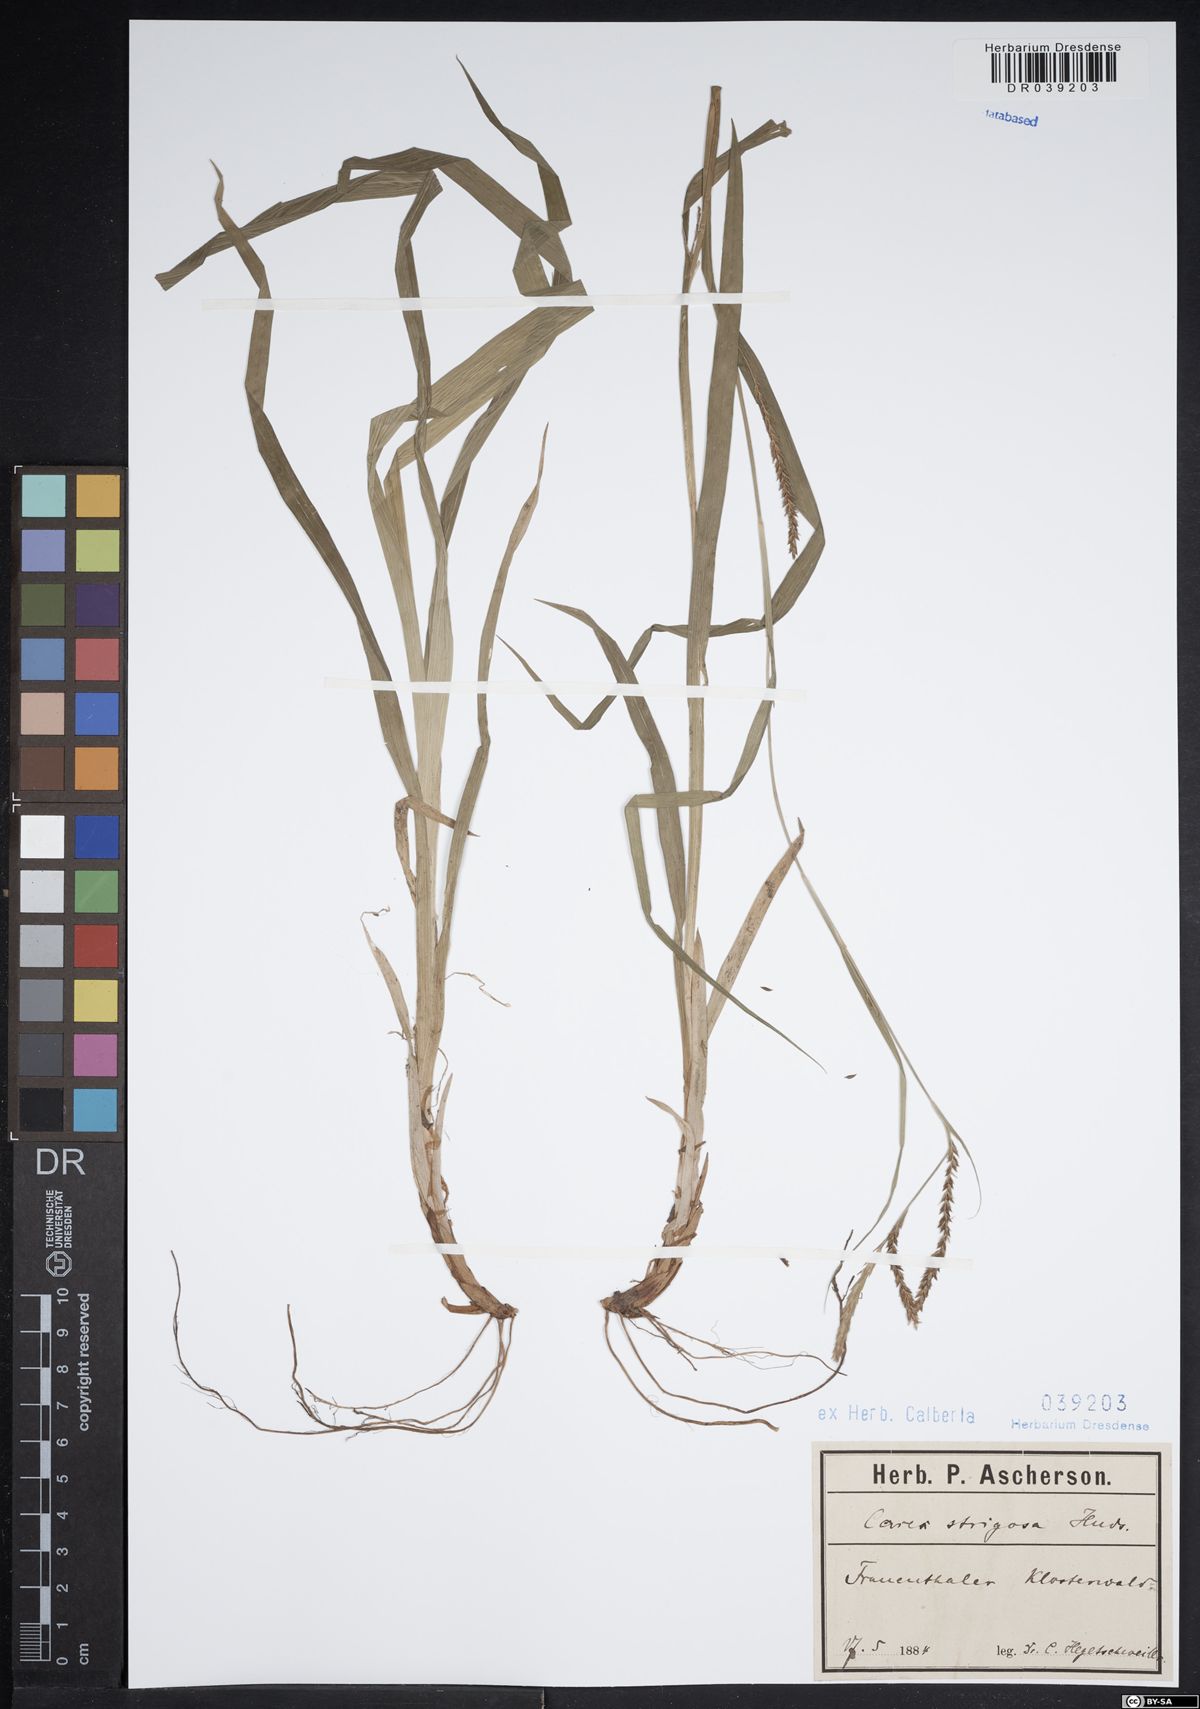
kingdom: Plantae
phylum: Tracheophyta
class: Liliopsida
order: Poales
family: Cyperaceae
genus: Carex
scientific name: Carex strigosa
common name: Thin-spiked wood-sedge
